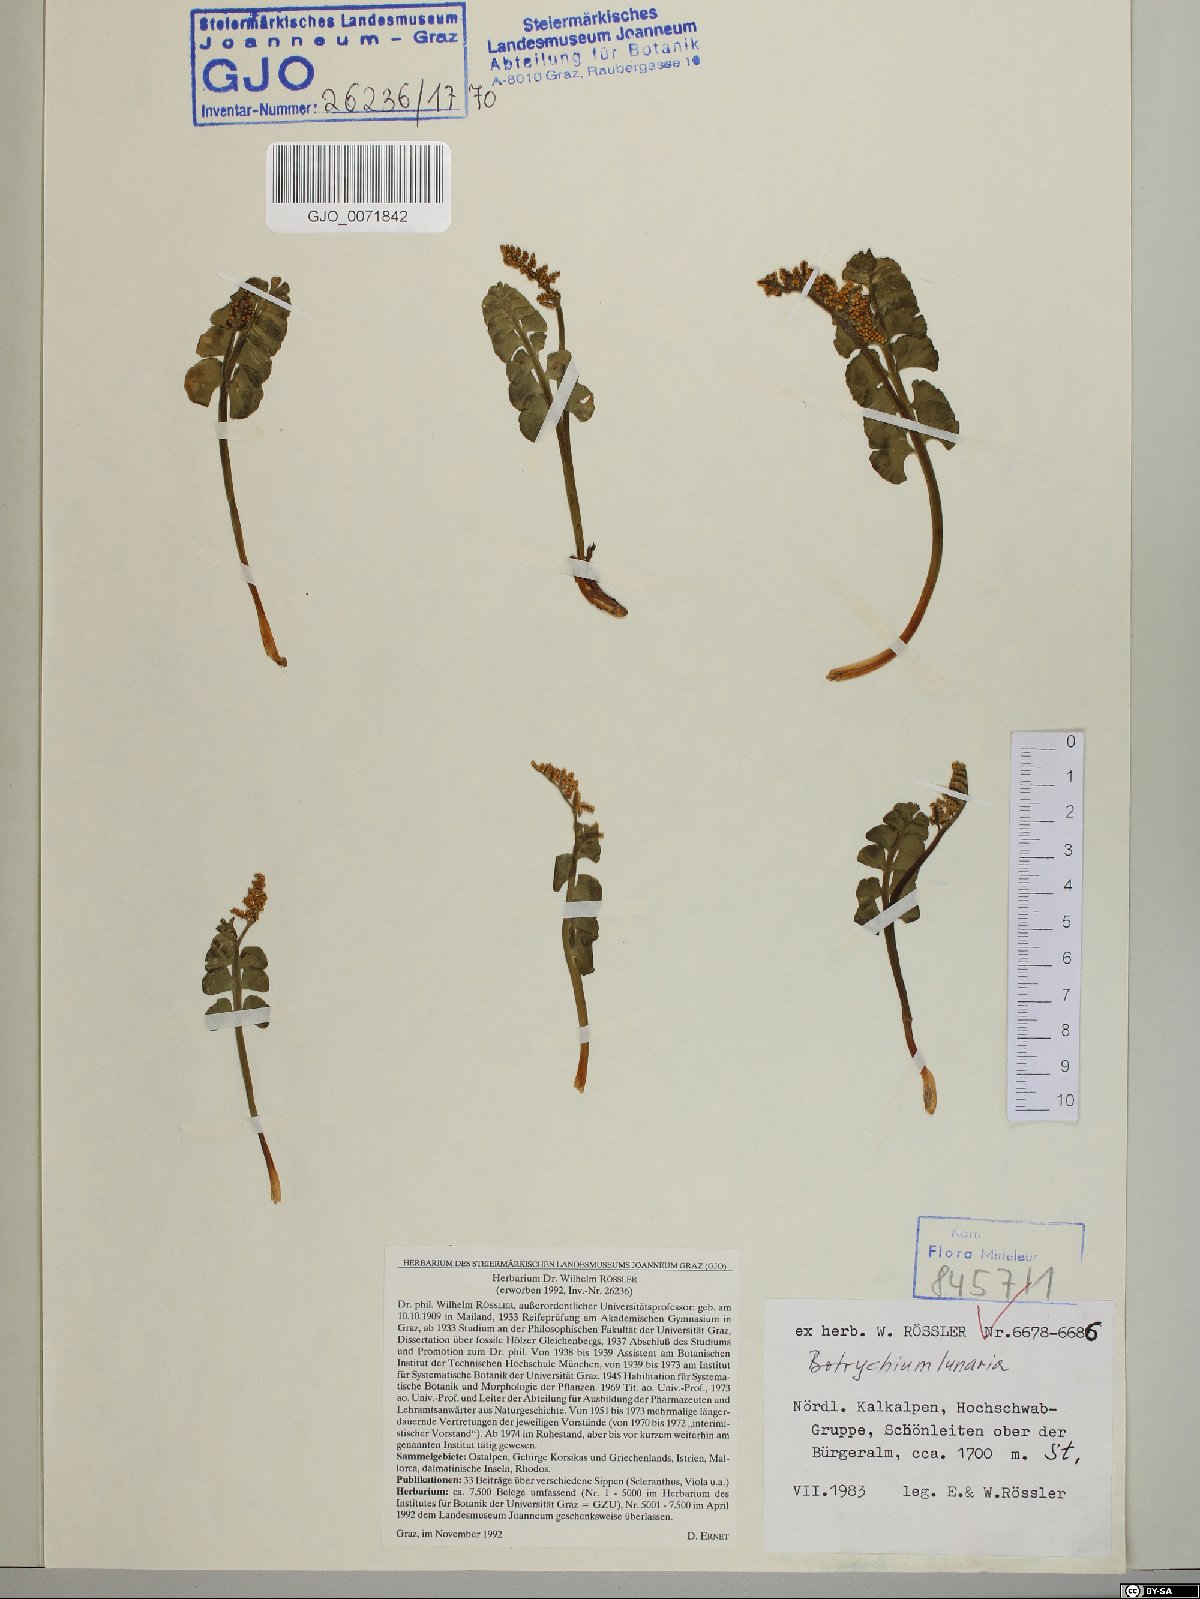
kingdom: Plantae
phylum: Tracheophyta
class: Polypodiopsida
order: Ophioglossales
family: Ophioglossaceae
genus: Botrychium
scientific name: Botrychium lunaria
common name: Moonwort
